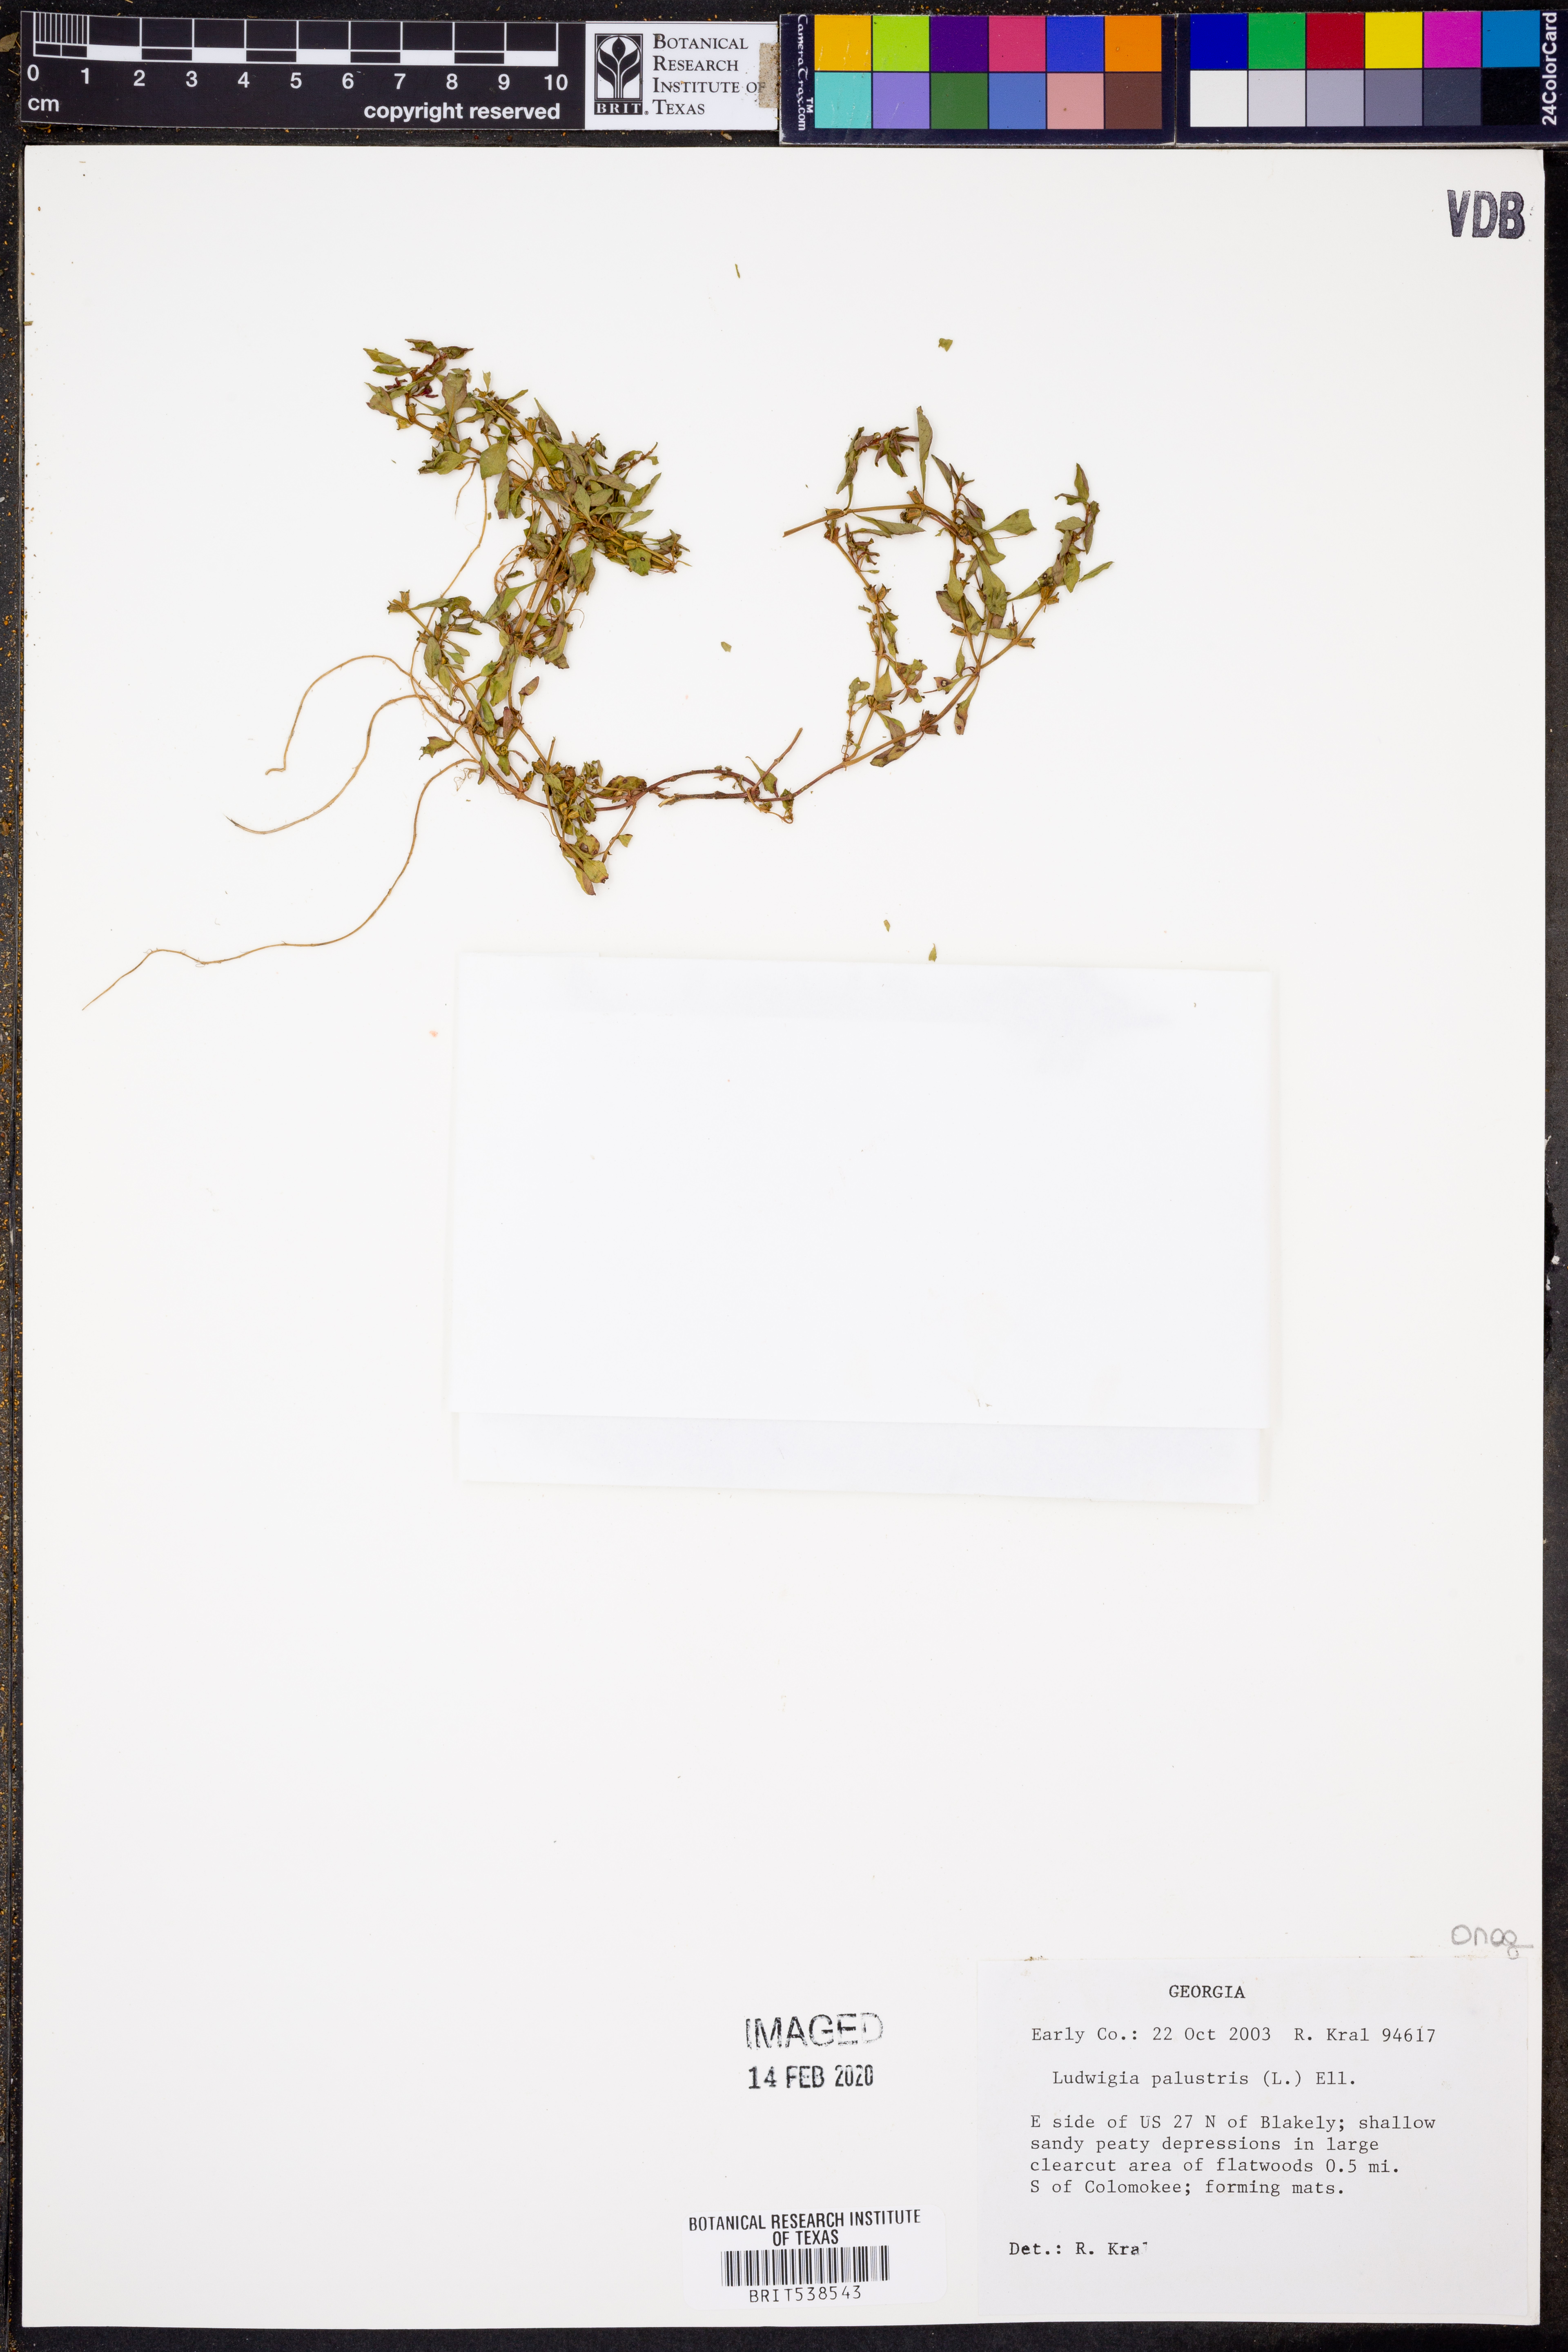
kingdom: Plantae
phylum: Tracheophyta
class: Magnoliopsida
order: Myrtales
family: Onagraceae
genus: Ludwigia
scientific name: Ludwigia palustris
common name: Hampshire-purslane
